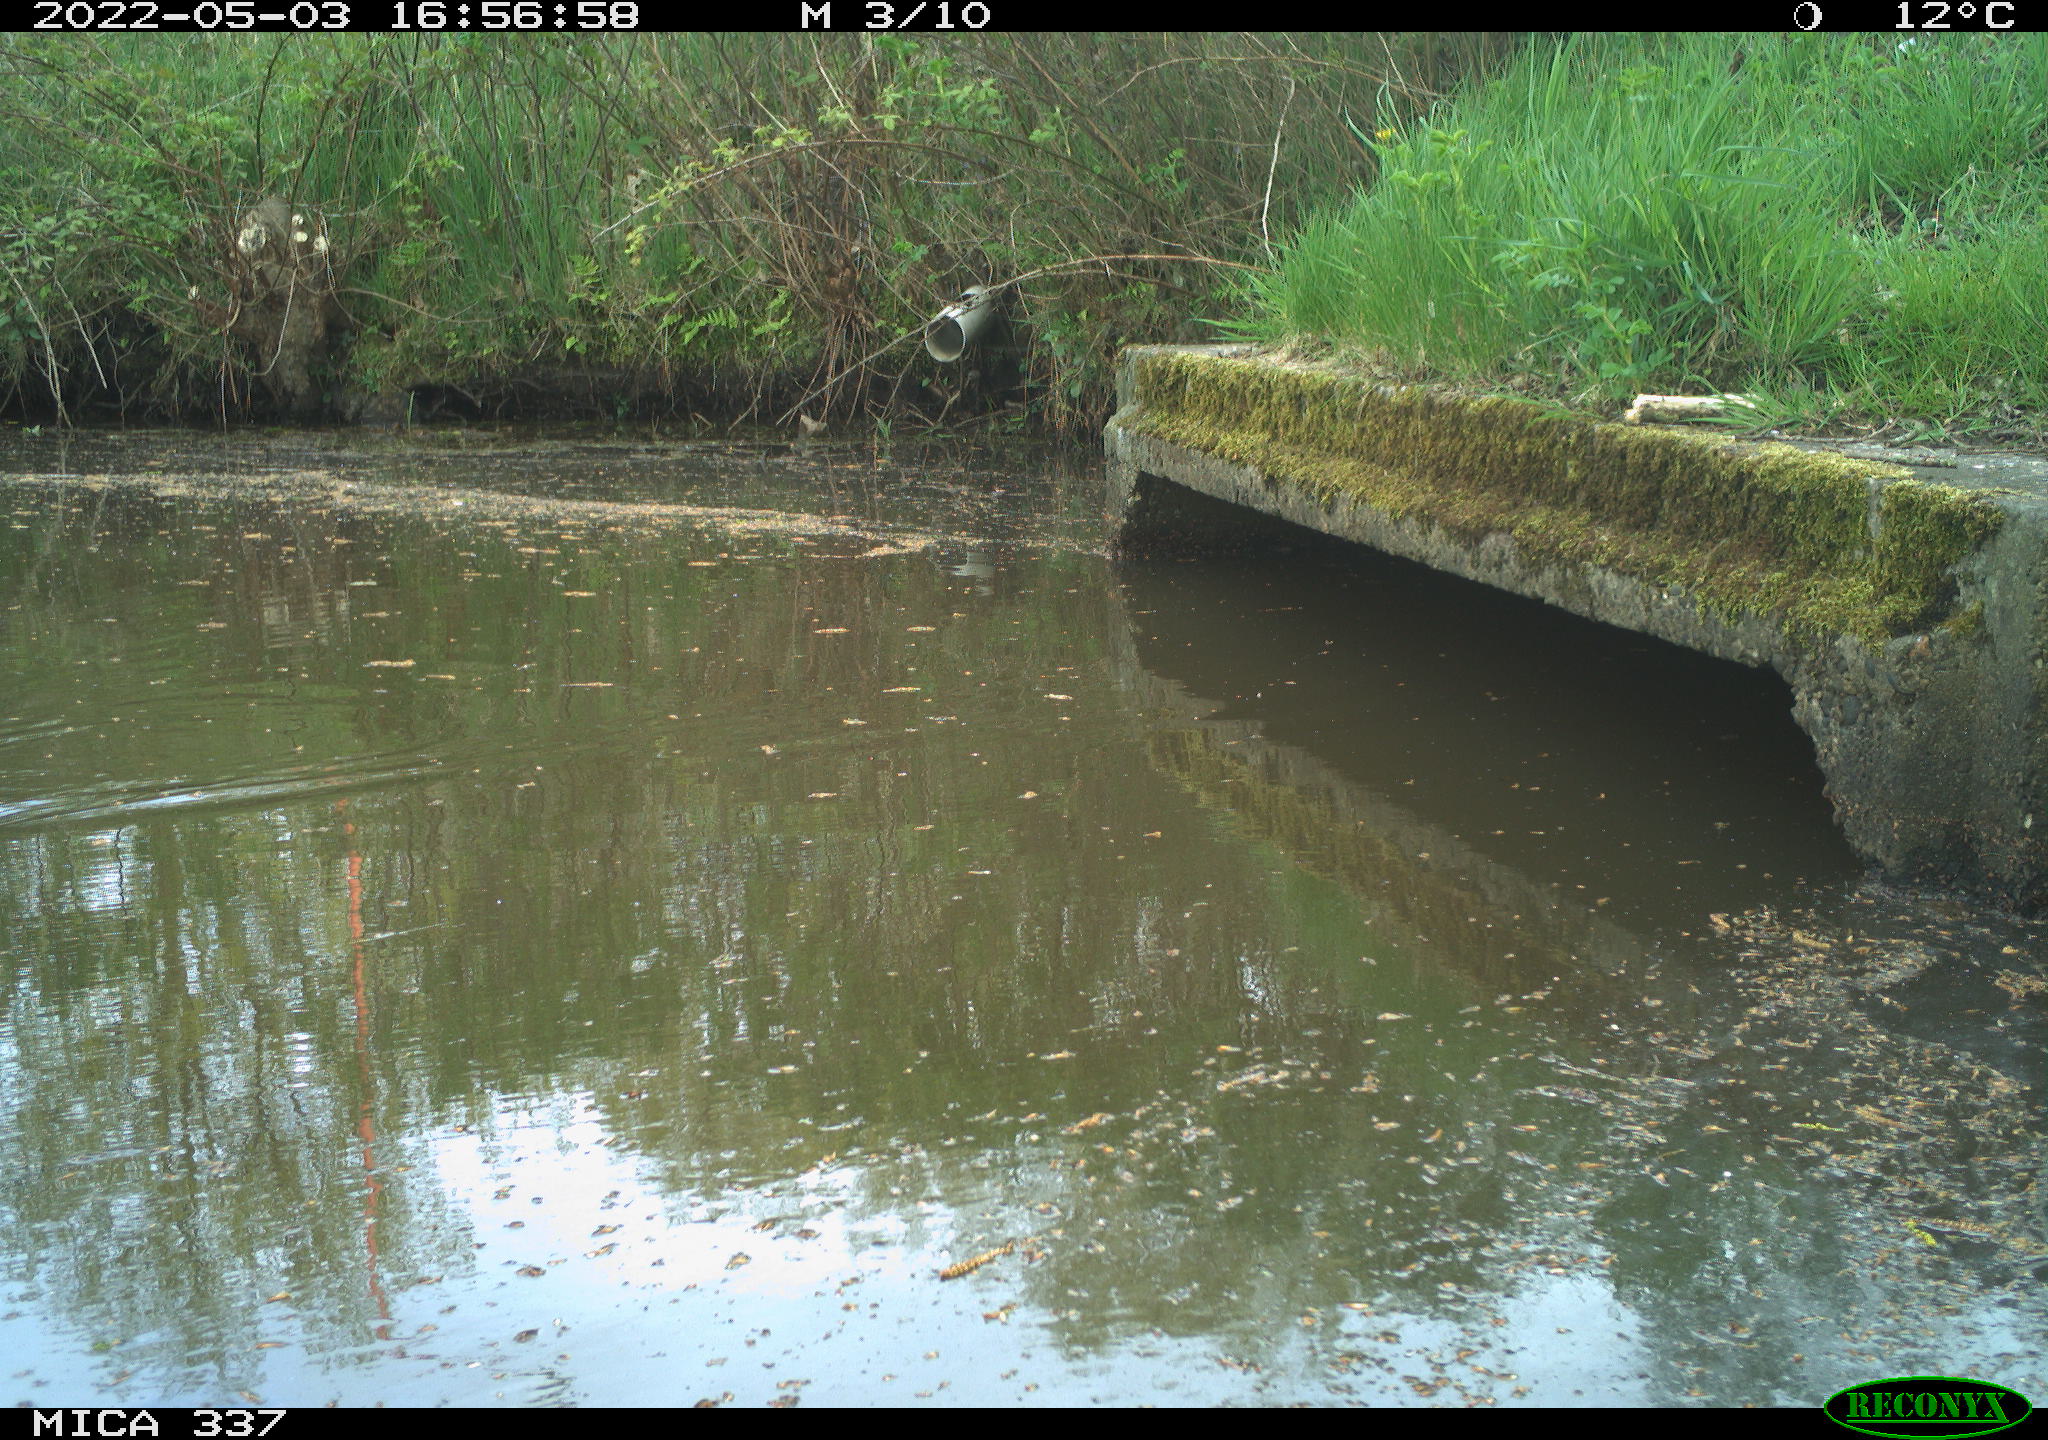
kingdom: Animalia
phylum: Chordata
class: Aves
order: Gruiformes
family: Rallidae
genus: Gallinula
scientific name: Gallinula chloropus
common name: Common moorhen
